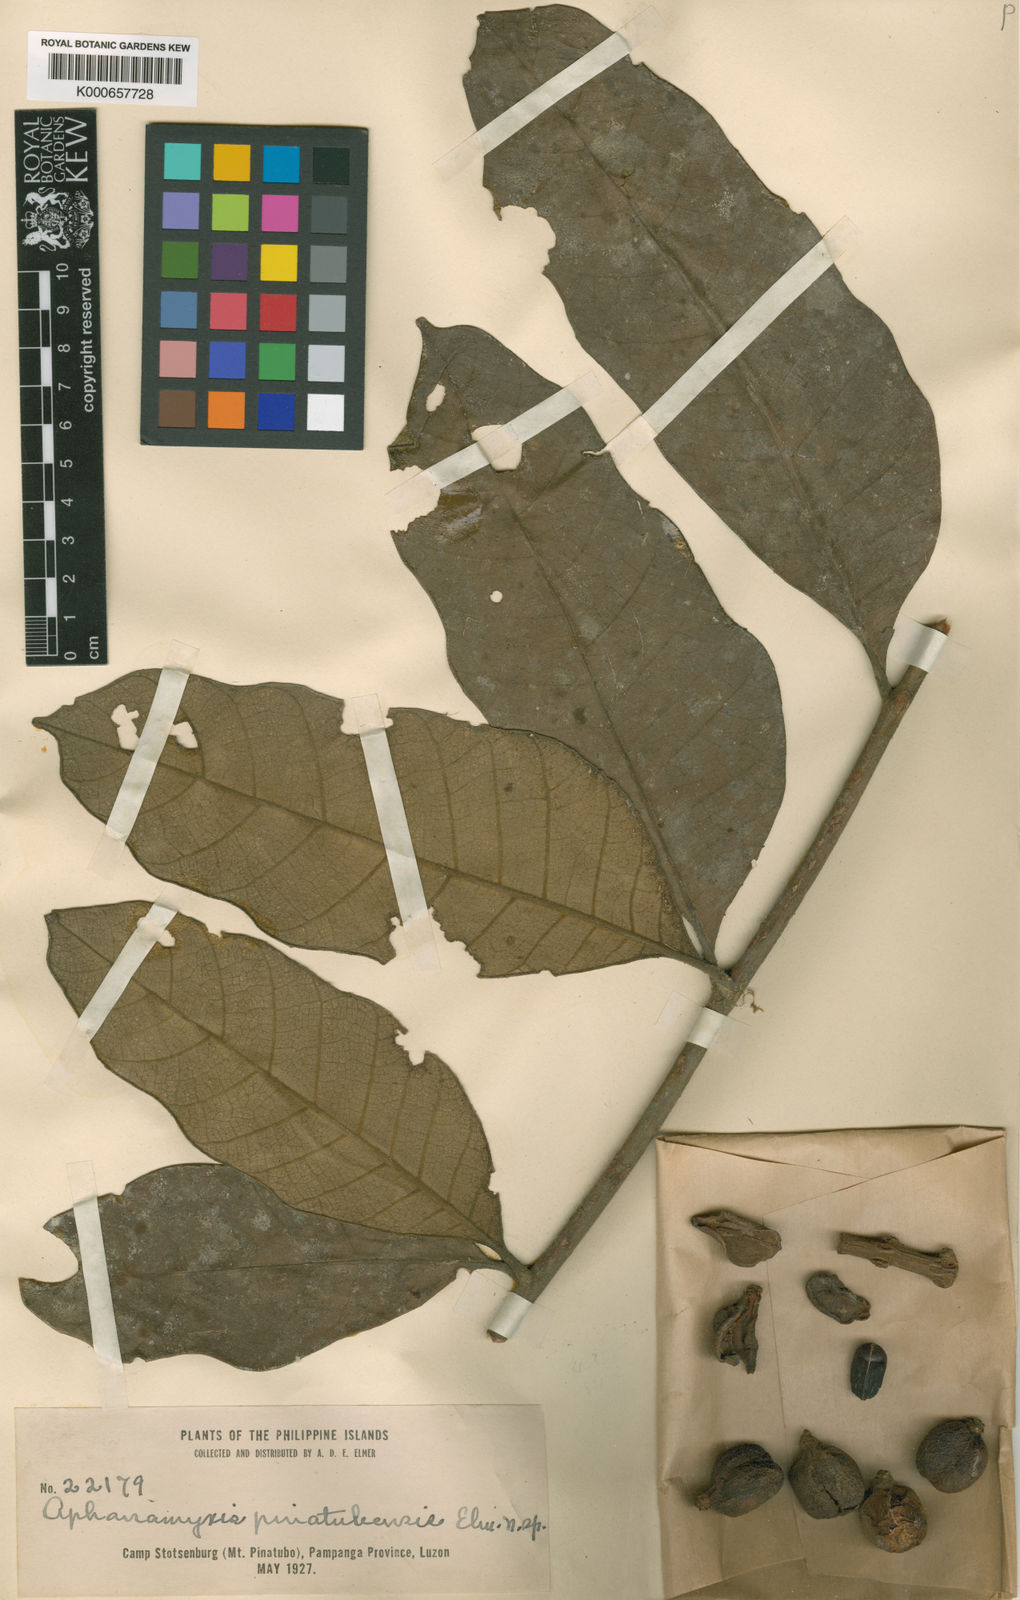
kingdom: Plantae
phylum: Tracheophyta
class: Magnoliopsida
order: Sapindales
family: Meliaceae
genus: Aphanamixis
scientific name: Aphanamixis polystachya
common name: Pithraj tree
